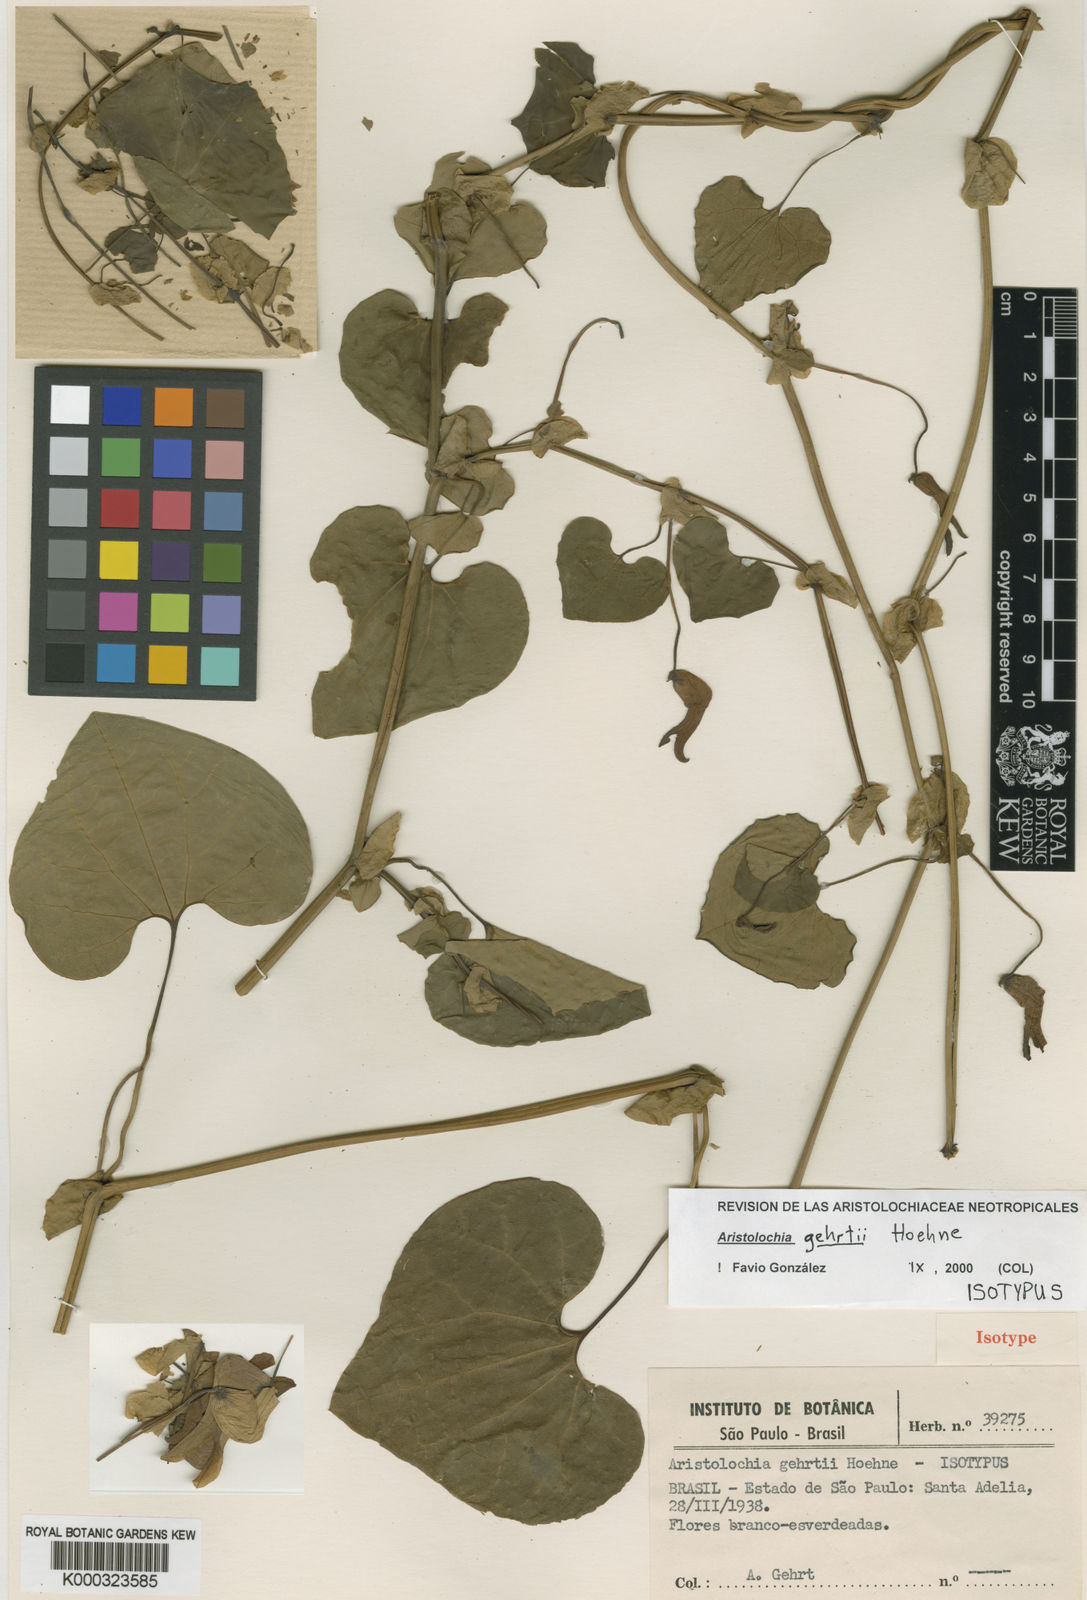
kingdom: Plantae
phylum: Tracheophyta
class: Magnoliopsida
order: Piperales
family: Aristolochiaceae
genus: Aristolochia
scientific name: Aristolochia gehrtii
